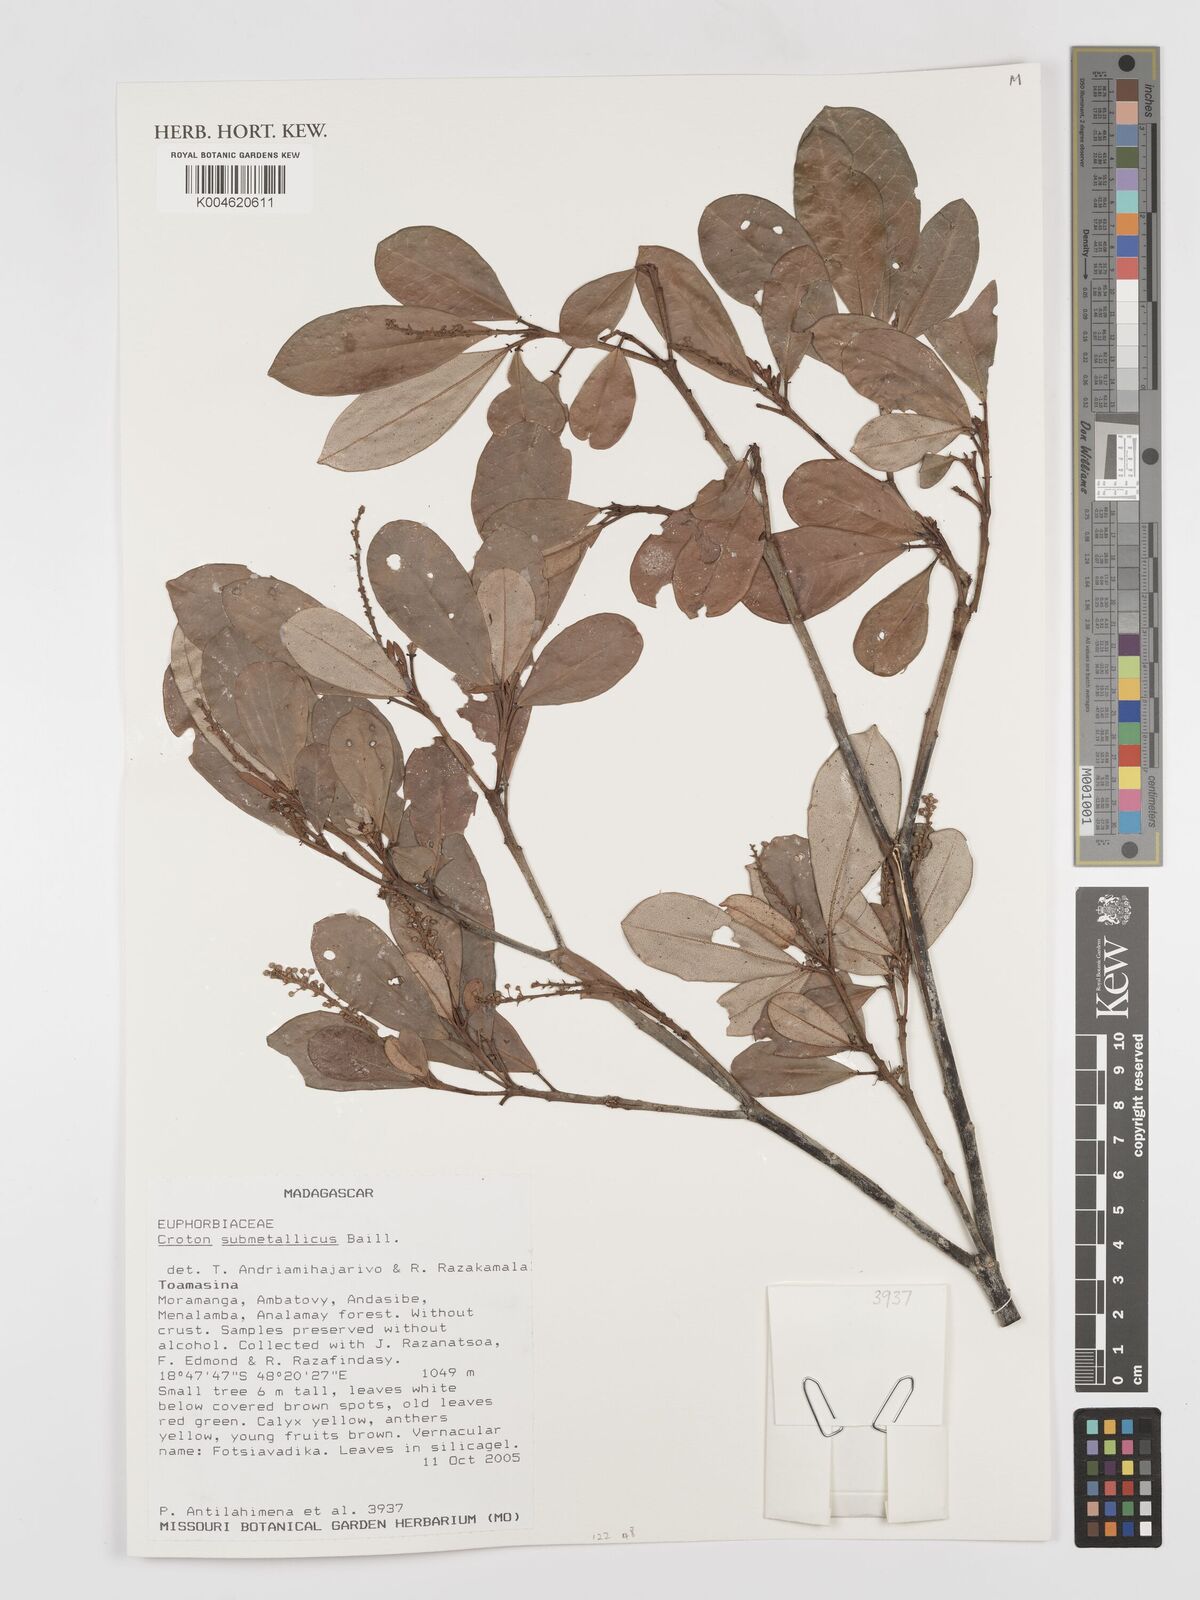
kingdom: Plantae
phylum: Tracheophyta
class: Magnoliopsida
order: Malpighiales
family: Euphorbiaceae
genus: Croton
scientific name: Croton submetallicus
